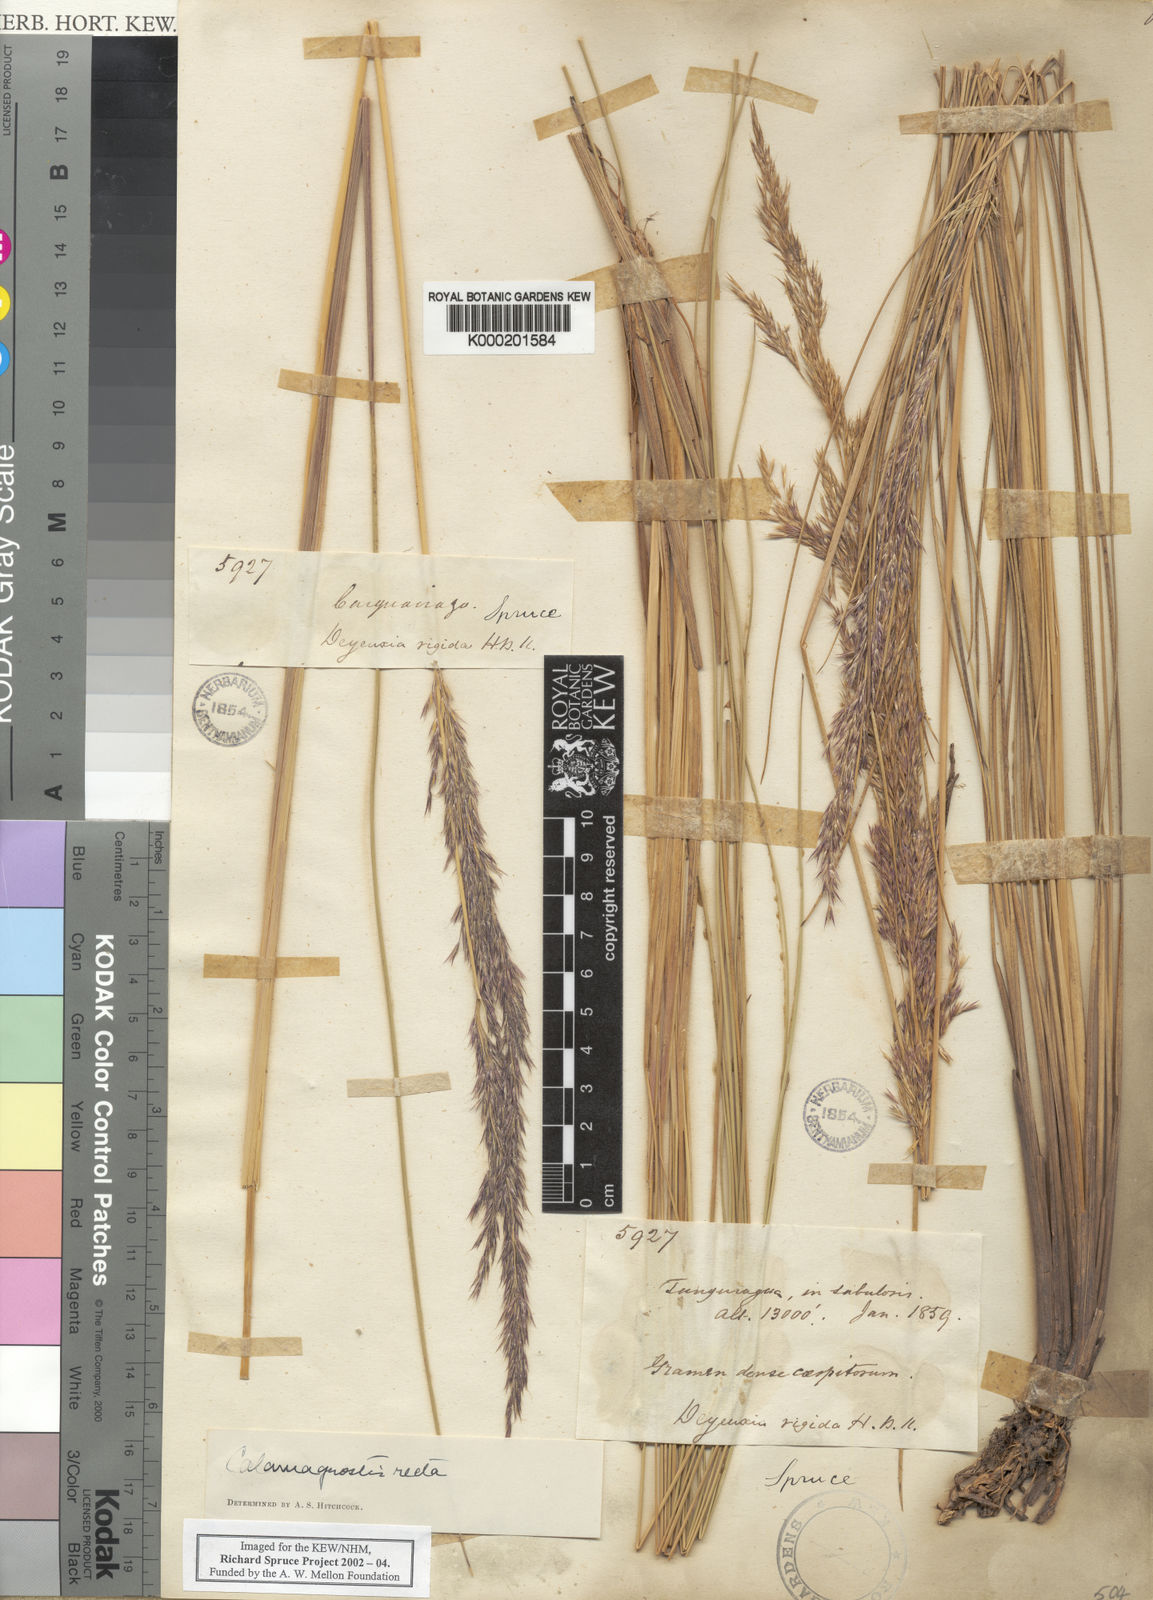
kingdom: Plantae
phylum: Tracheophyta
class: Liliopsida
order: Poales
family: Poaceae
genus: Cinnagrostis
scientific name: Cinnagrostis recta
